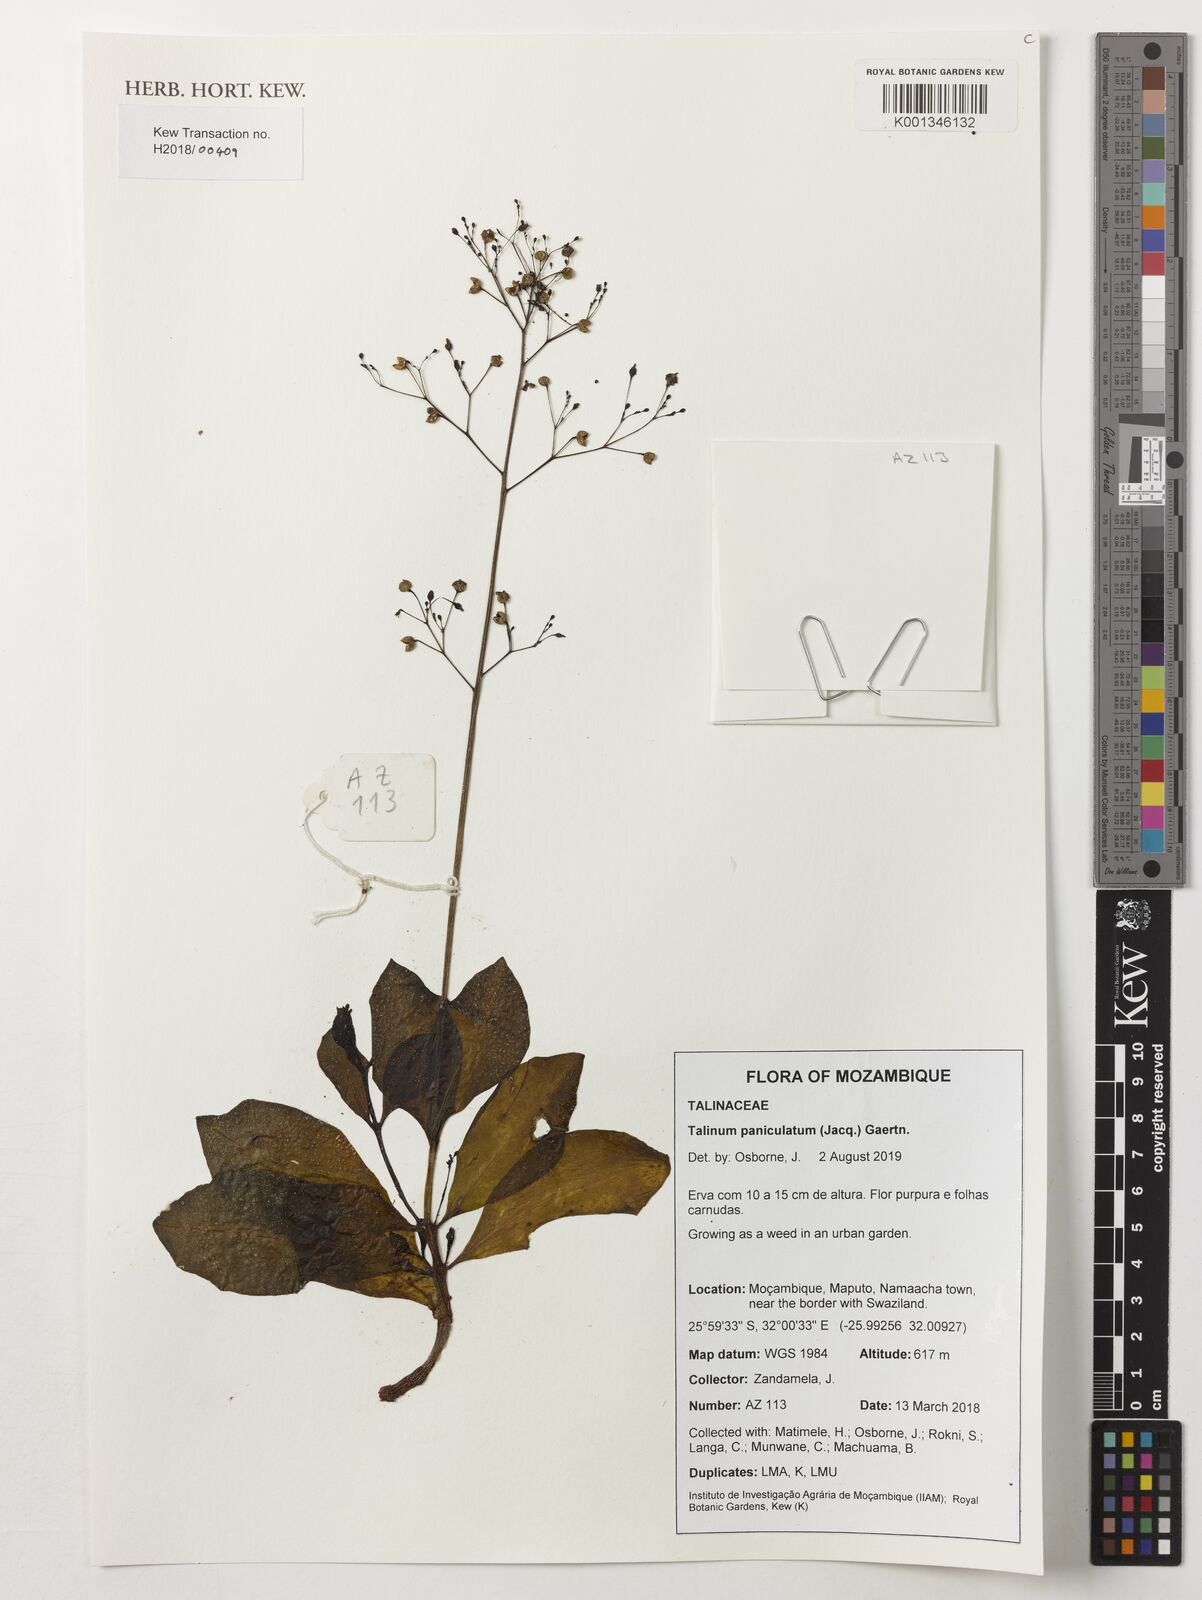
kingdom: Plantae
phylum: Tracheophyta
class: Magnoliopsida
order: Caryophyllales
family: Talinaceae
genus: Talinum
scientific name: Talinum paniculatum
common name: Jewels of opar
